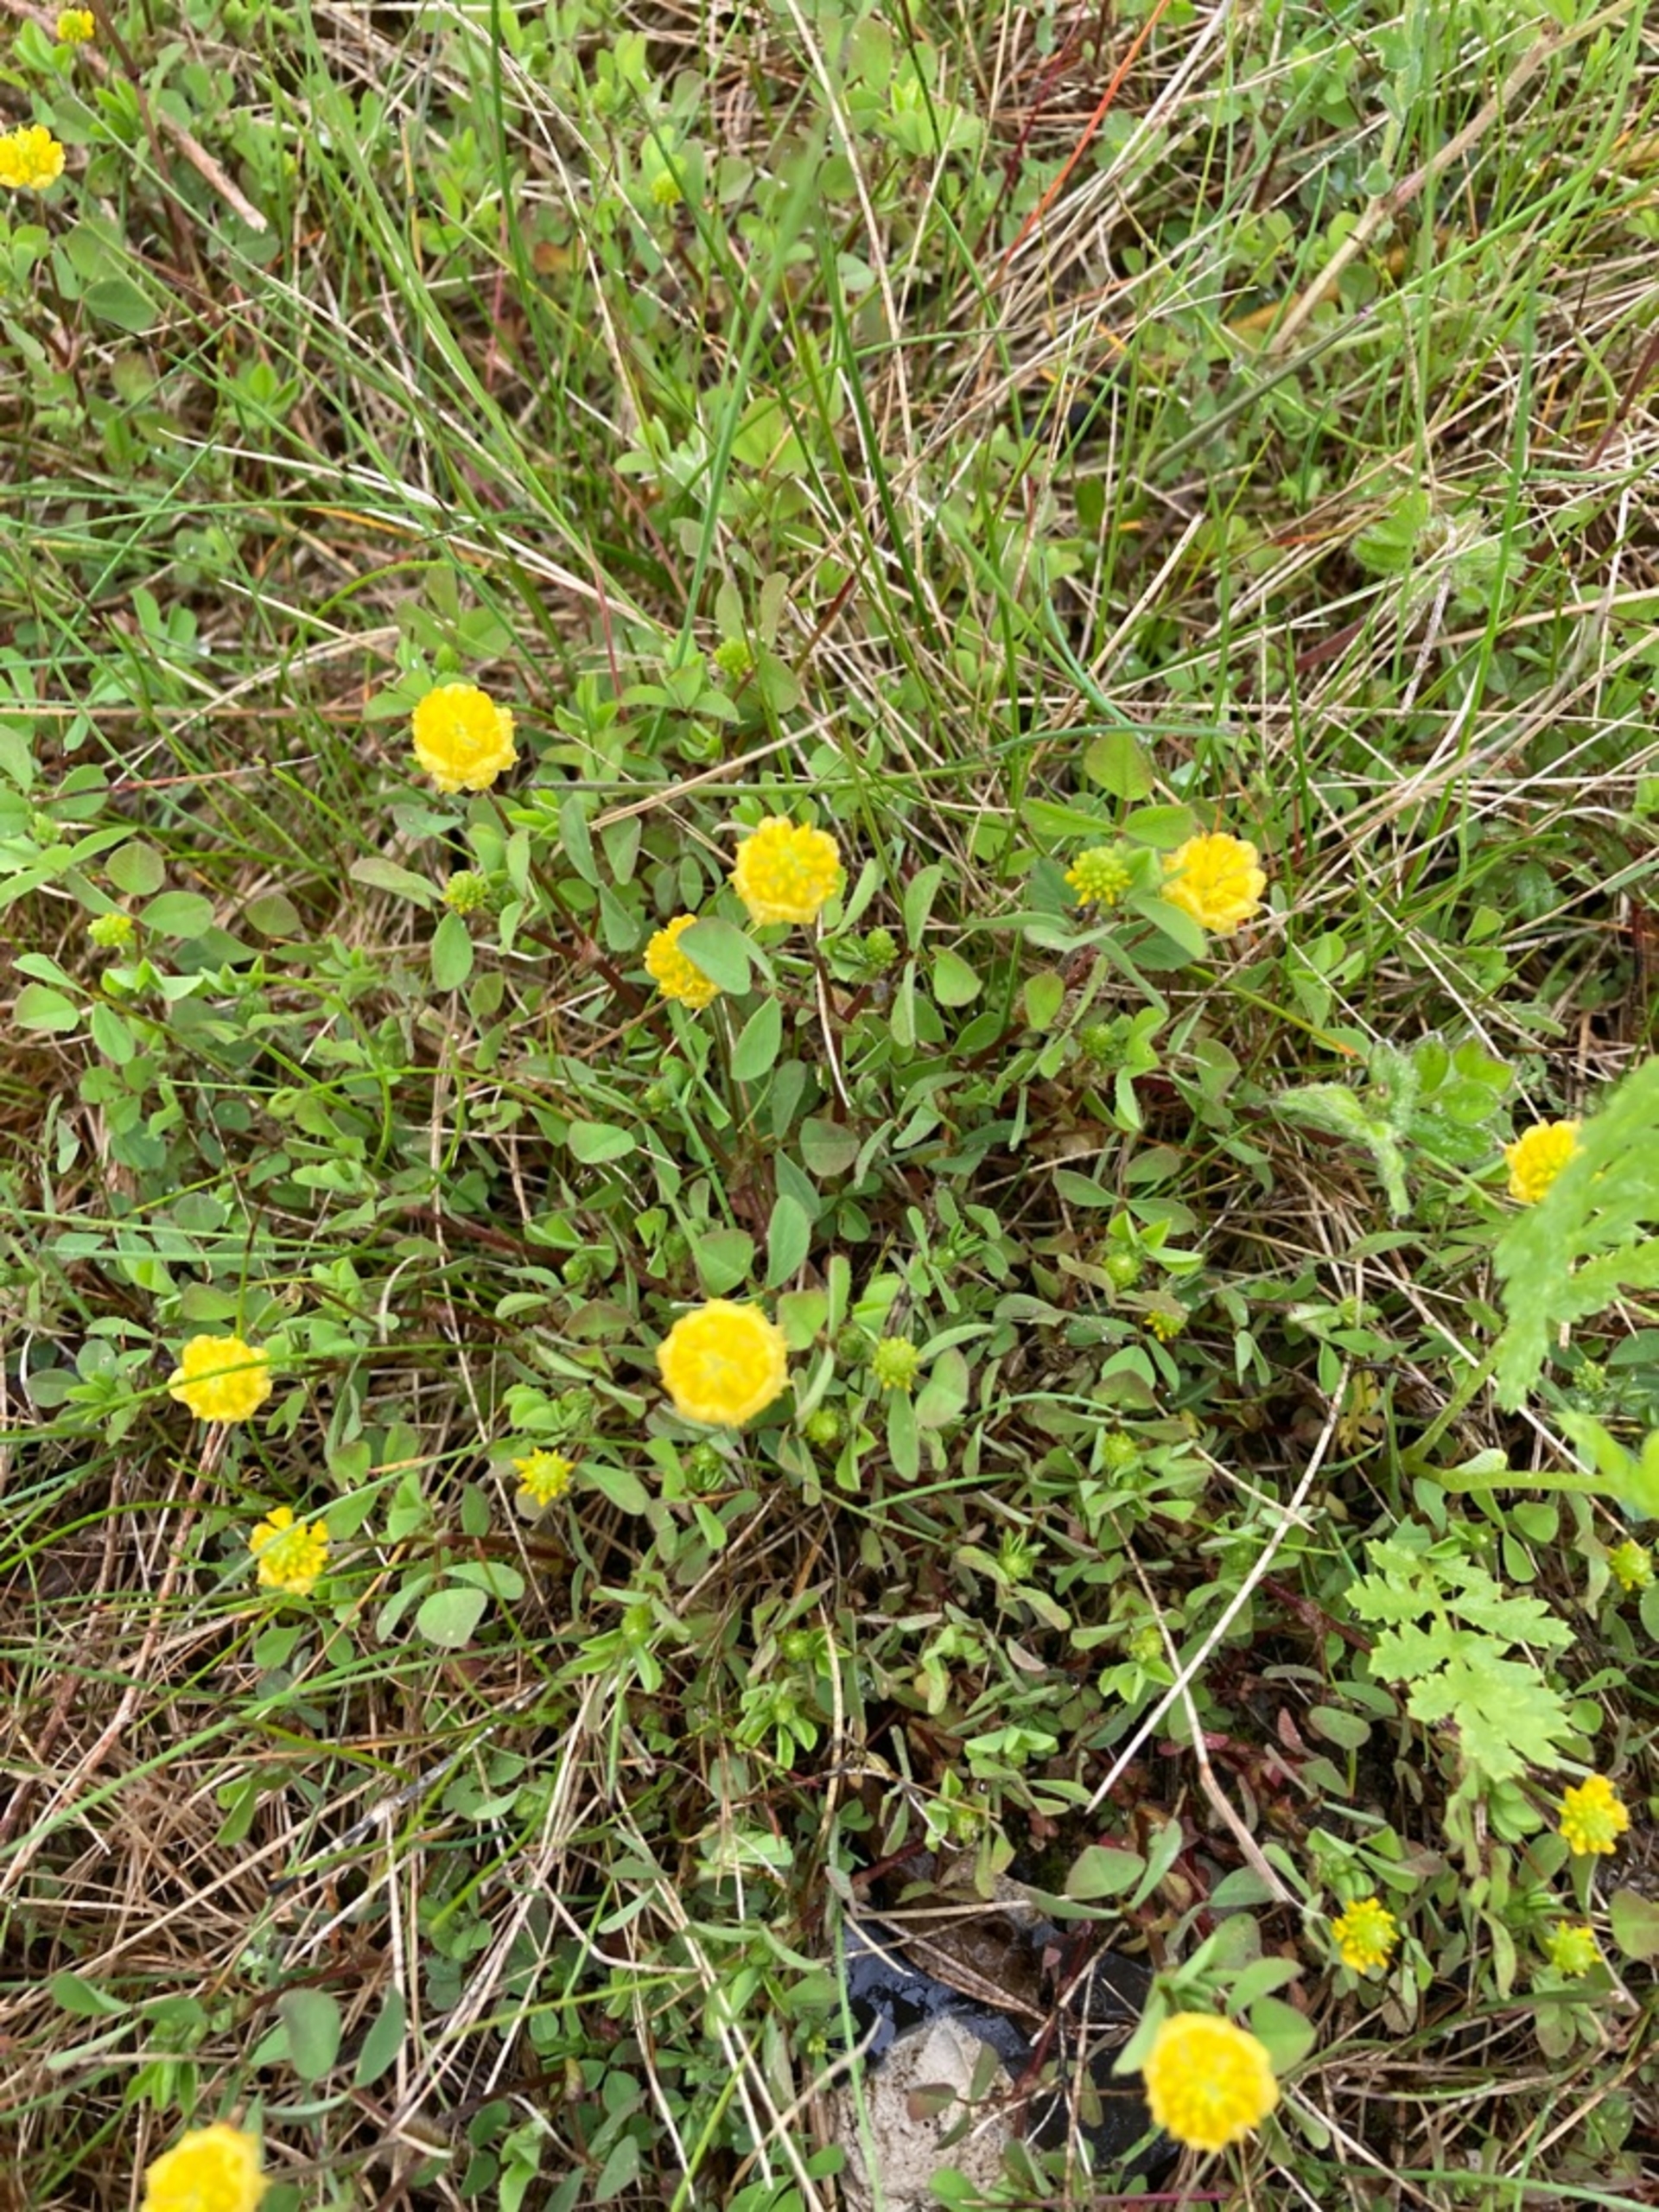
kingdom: Plantae
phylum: Tracheophyta
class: Magnoliopsida
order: Fabales
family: Fabaceae
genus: Trifolium
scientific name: Trifolium campestre
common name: Gul kløver
